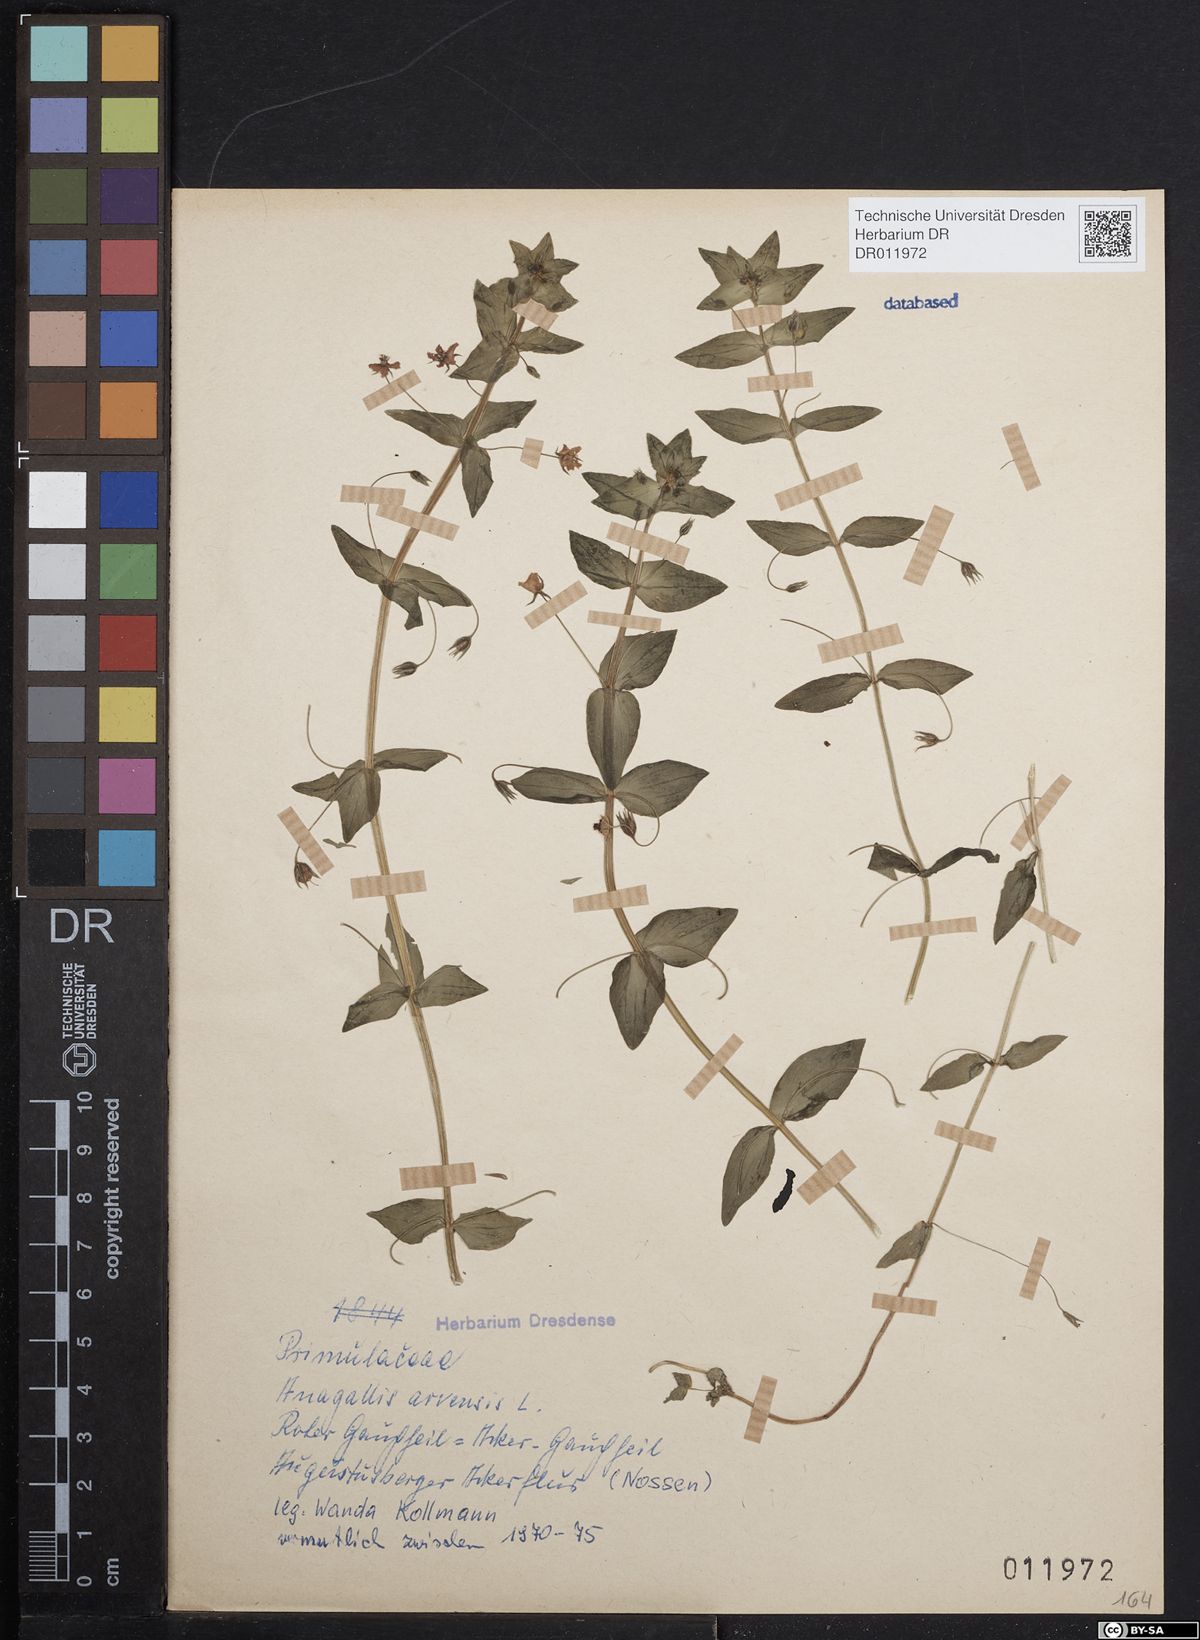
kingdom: Plantae
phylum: Tracheophyta
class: Magnoliopsida
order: Ericales
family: Primulaceae
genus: Lysimachia
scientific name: Lysimachia arvensis
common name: Scarlet pimpernel
